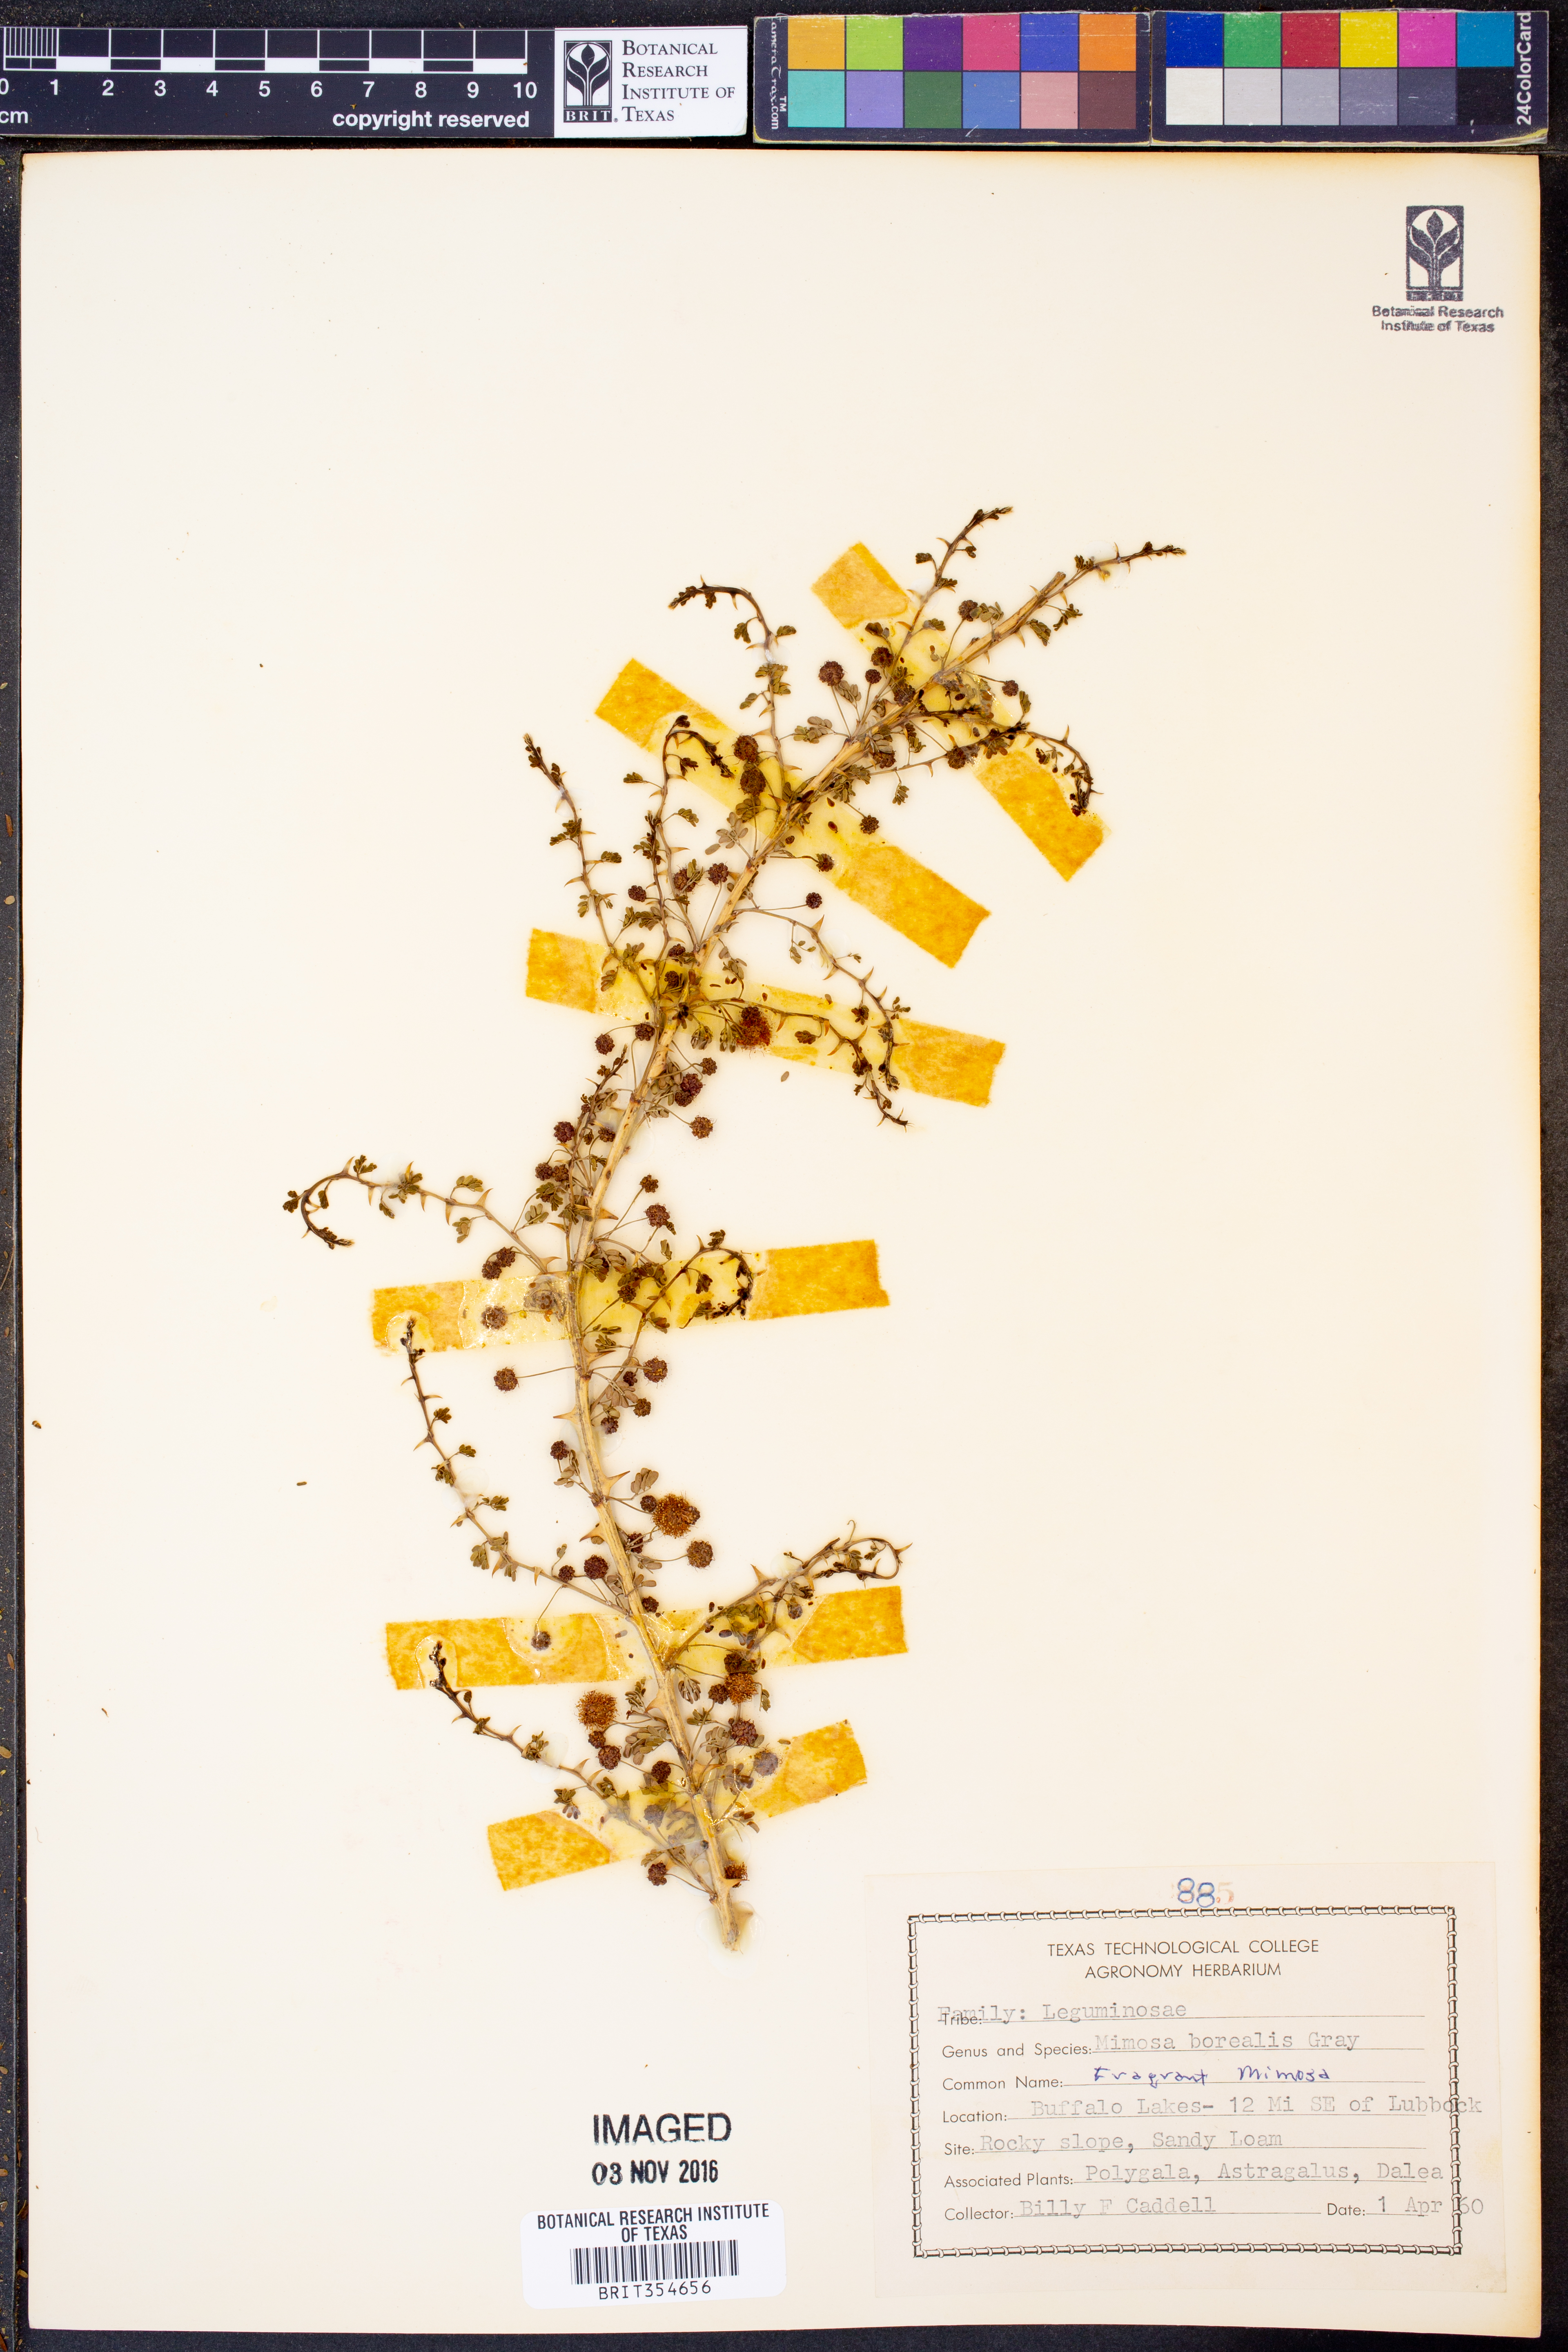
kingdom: Plantae
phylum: Tracheophyta
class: Magnoliopsida
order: Fabales
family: Fabaceae
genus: Mimosa
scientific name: Mimosa borealis
